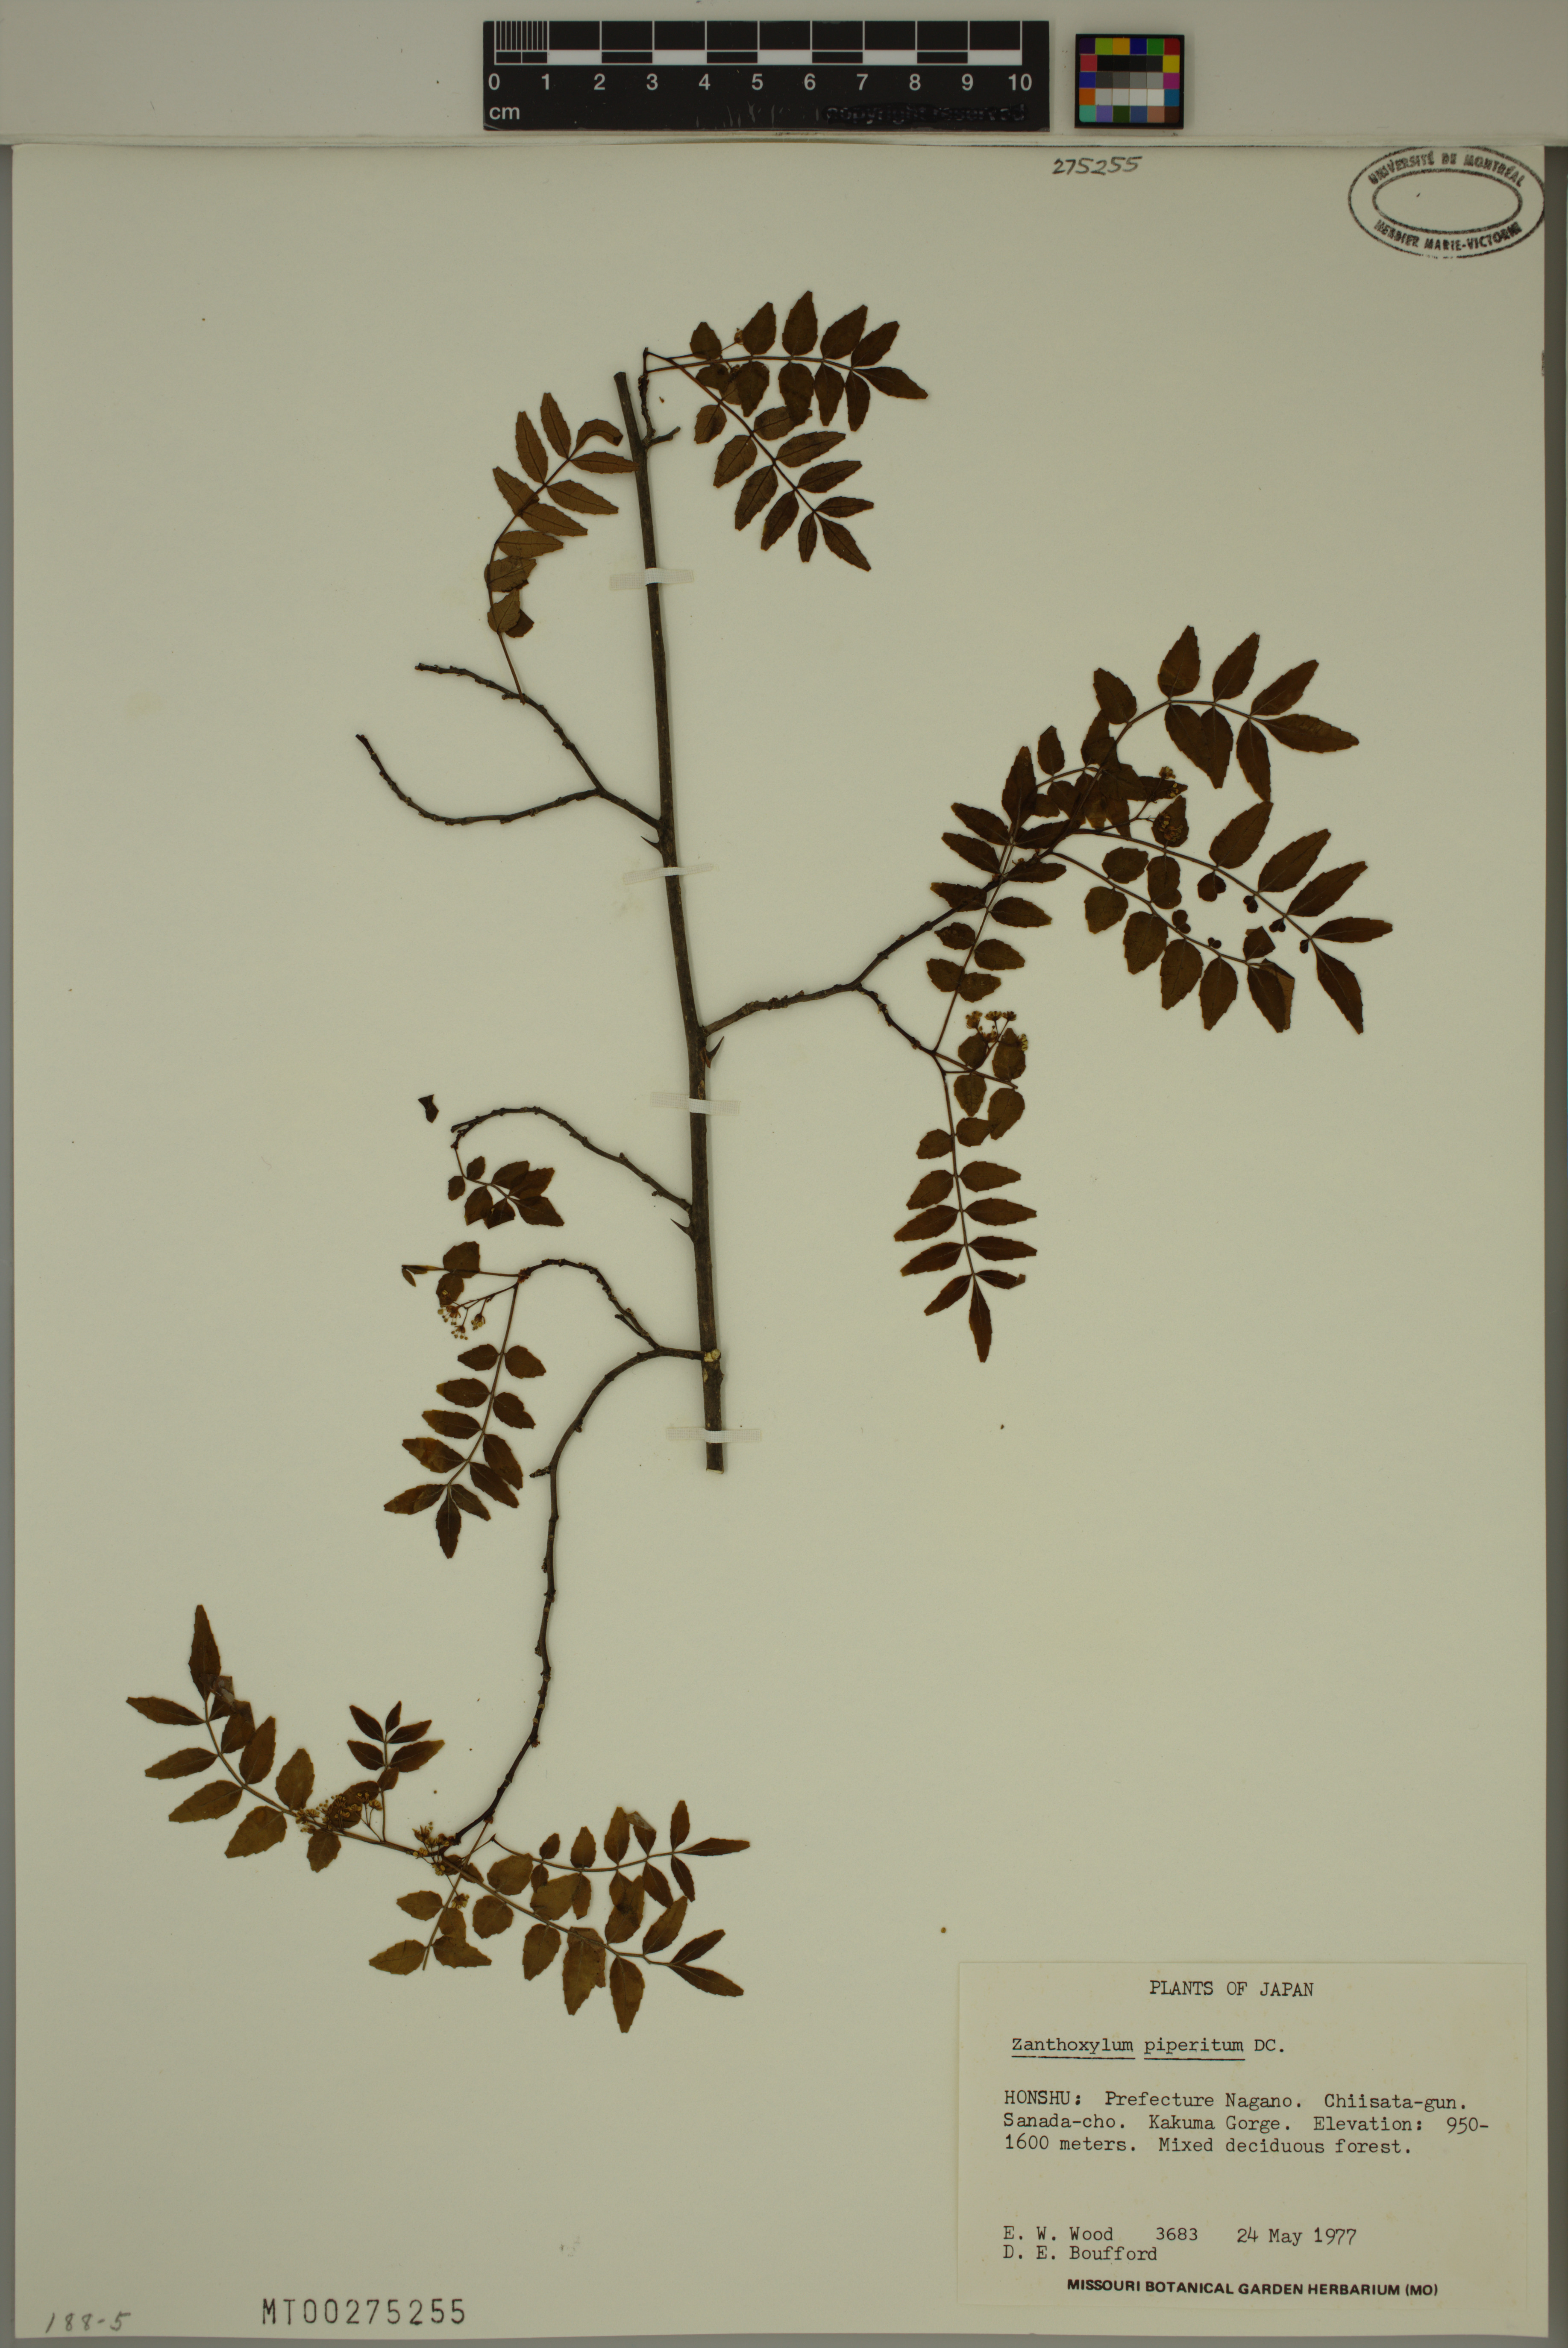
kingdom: Plantae
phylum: Tracheophyta
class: Magnoliopsida
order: Sapindales
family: Rutaceae
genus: Zanthoxylum
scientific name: Zanthoxylum piperitum
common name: Japanese-pepper
